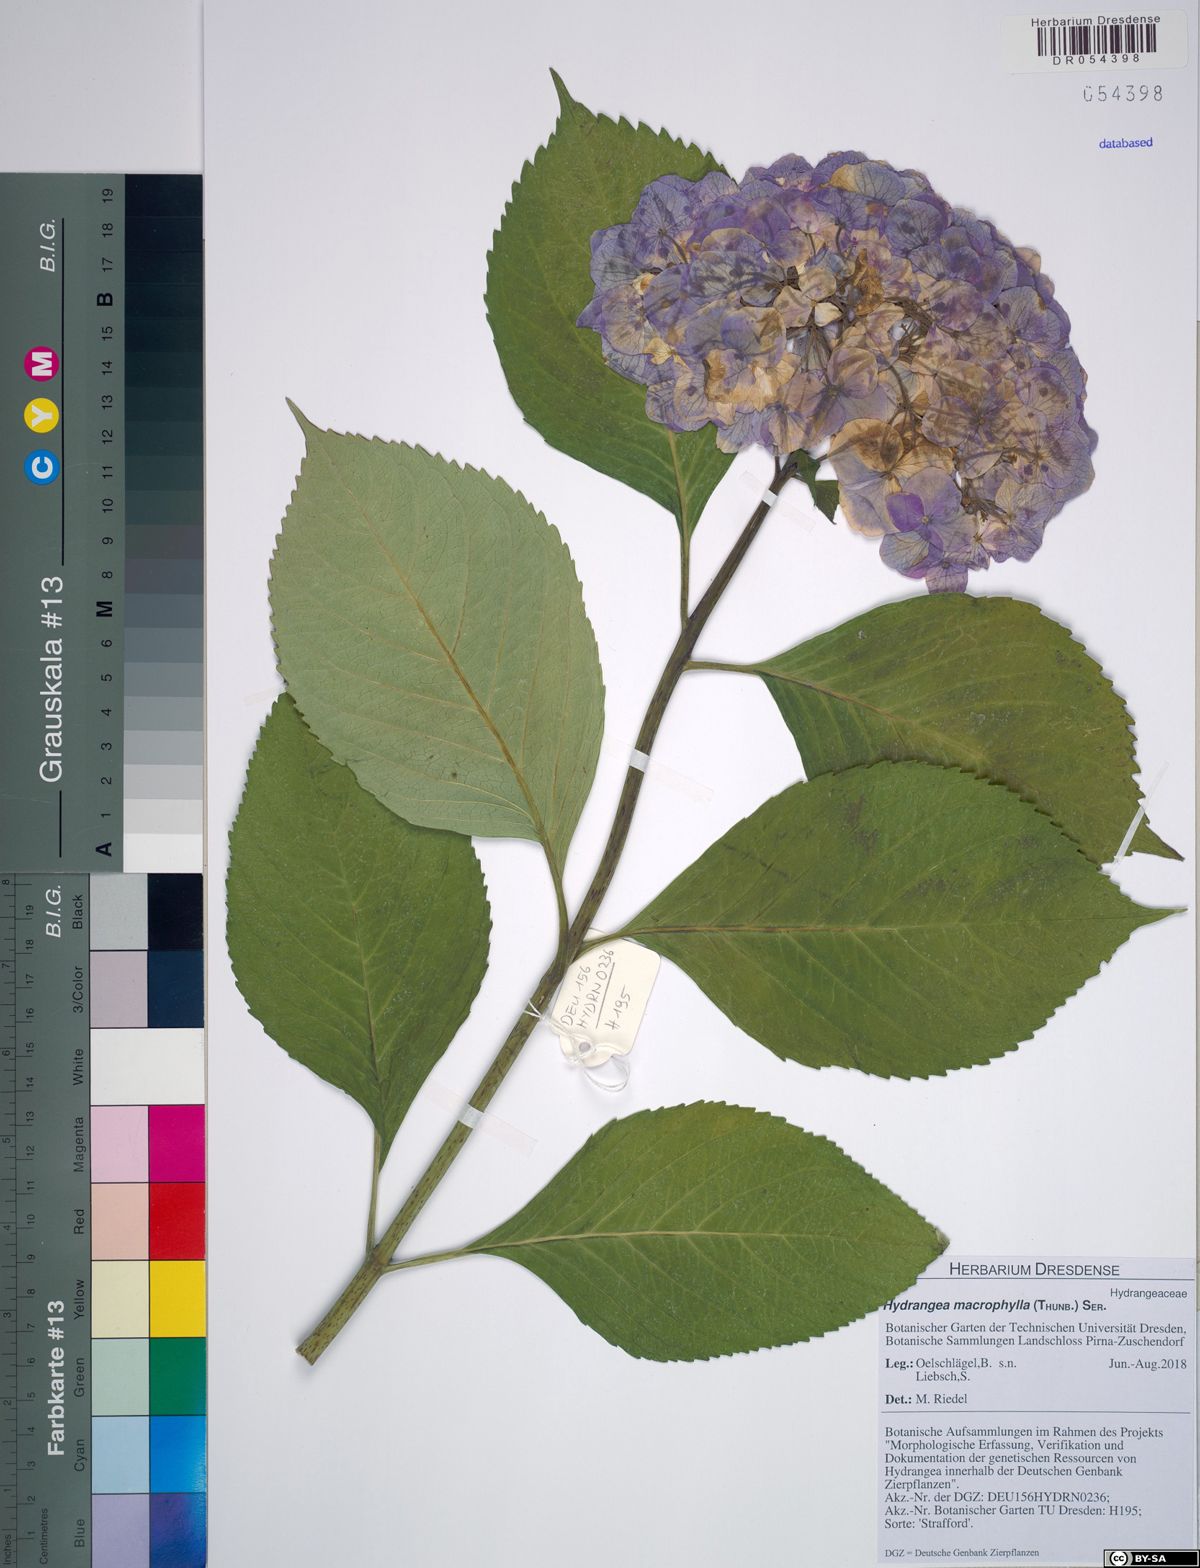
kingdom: Plantae
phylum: Tracheophyta
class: Magnoliopsida
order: Cornales
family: Hydrangeaceae
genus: Hydrangea
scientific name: Hydrangea macrophylla
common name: Hydrangea
